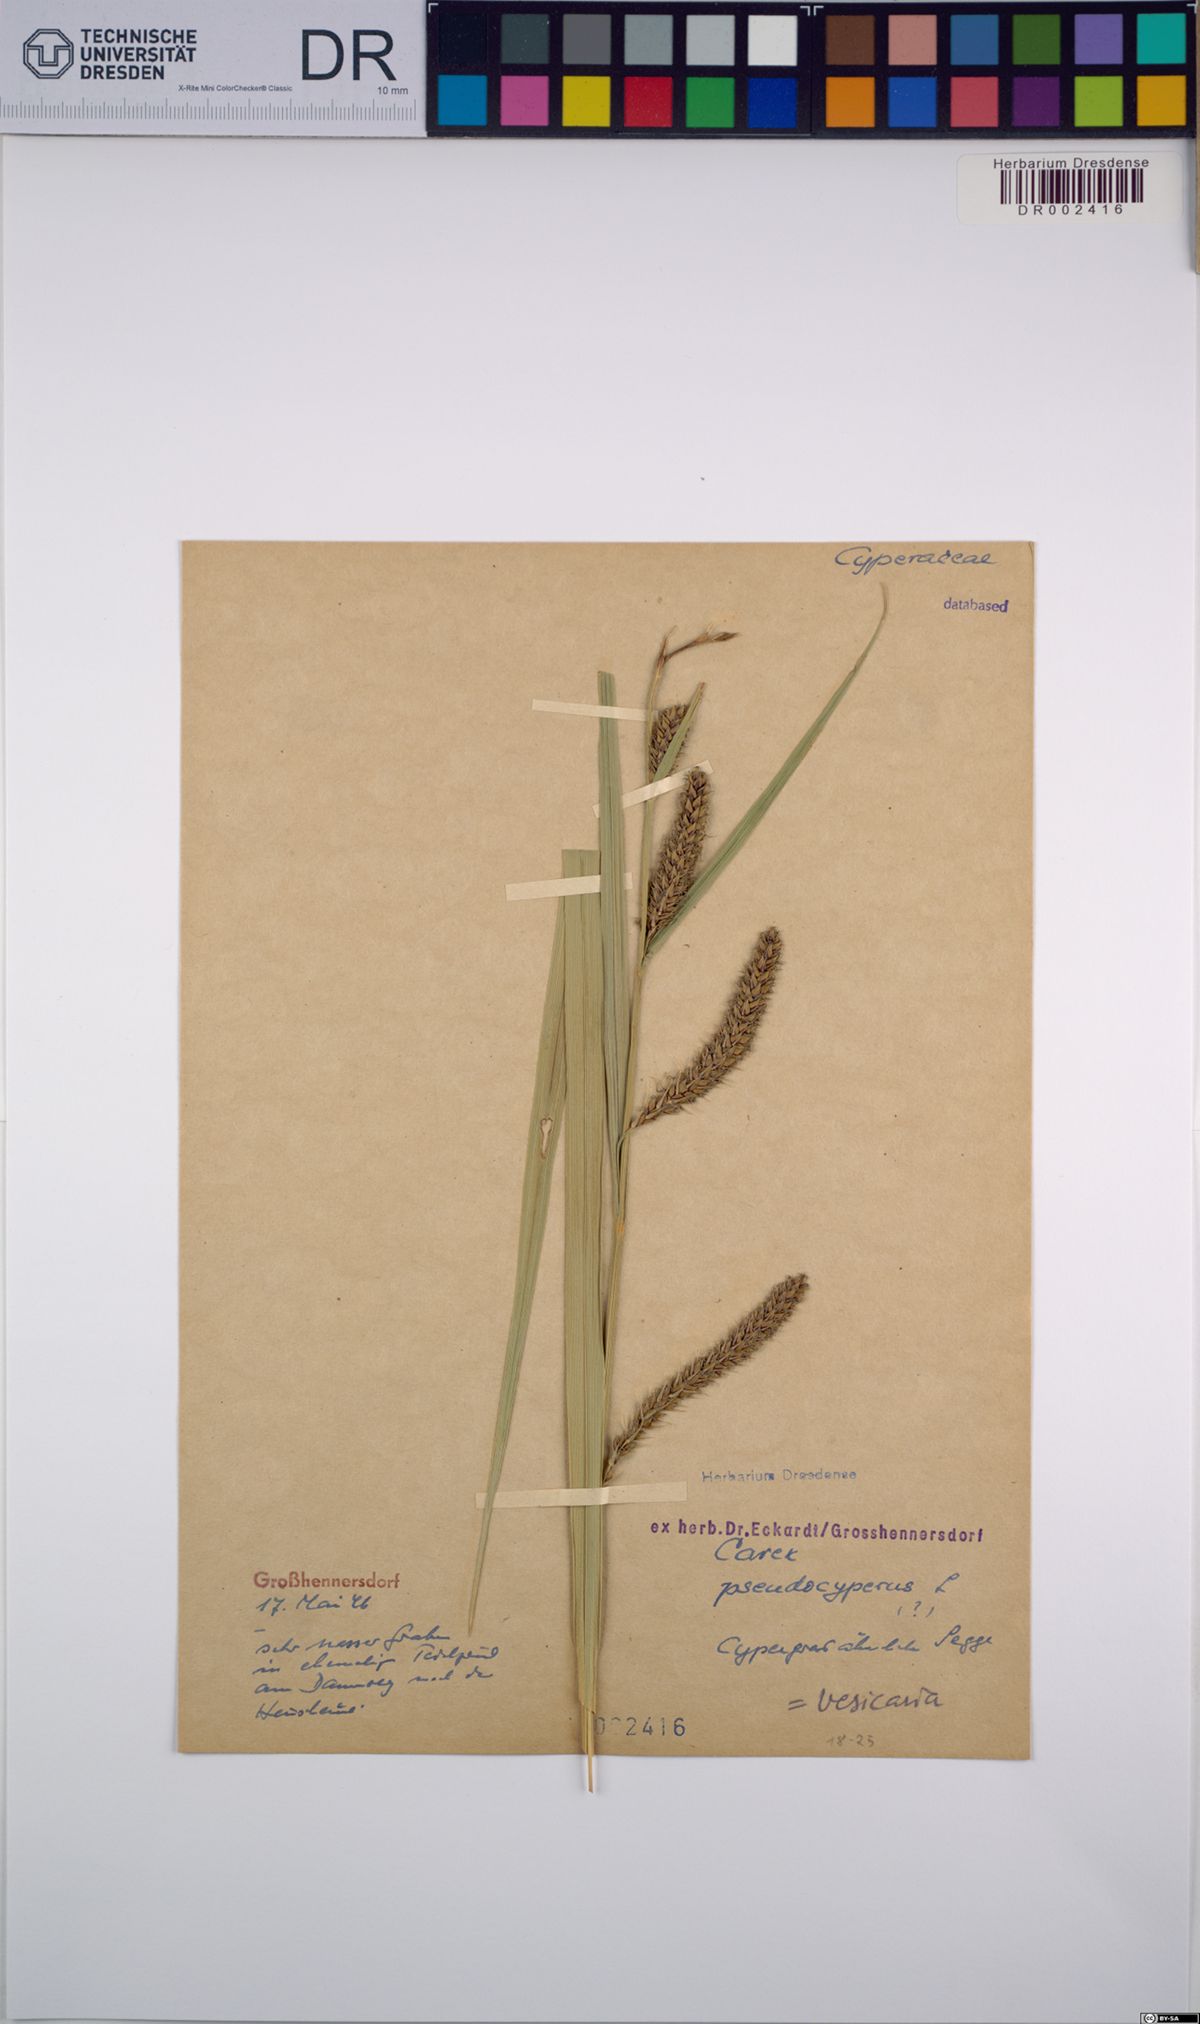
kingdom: Plantae
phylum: Tracheophyta
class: Liliopsida
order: Poales
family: Cyperaceae
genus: Carex
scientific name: Carex pseudocyperus
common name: Cyperus sedge
